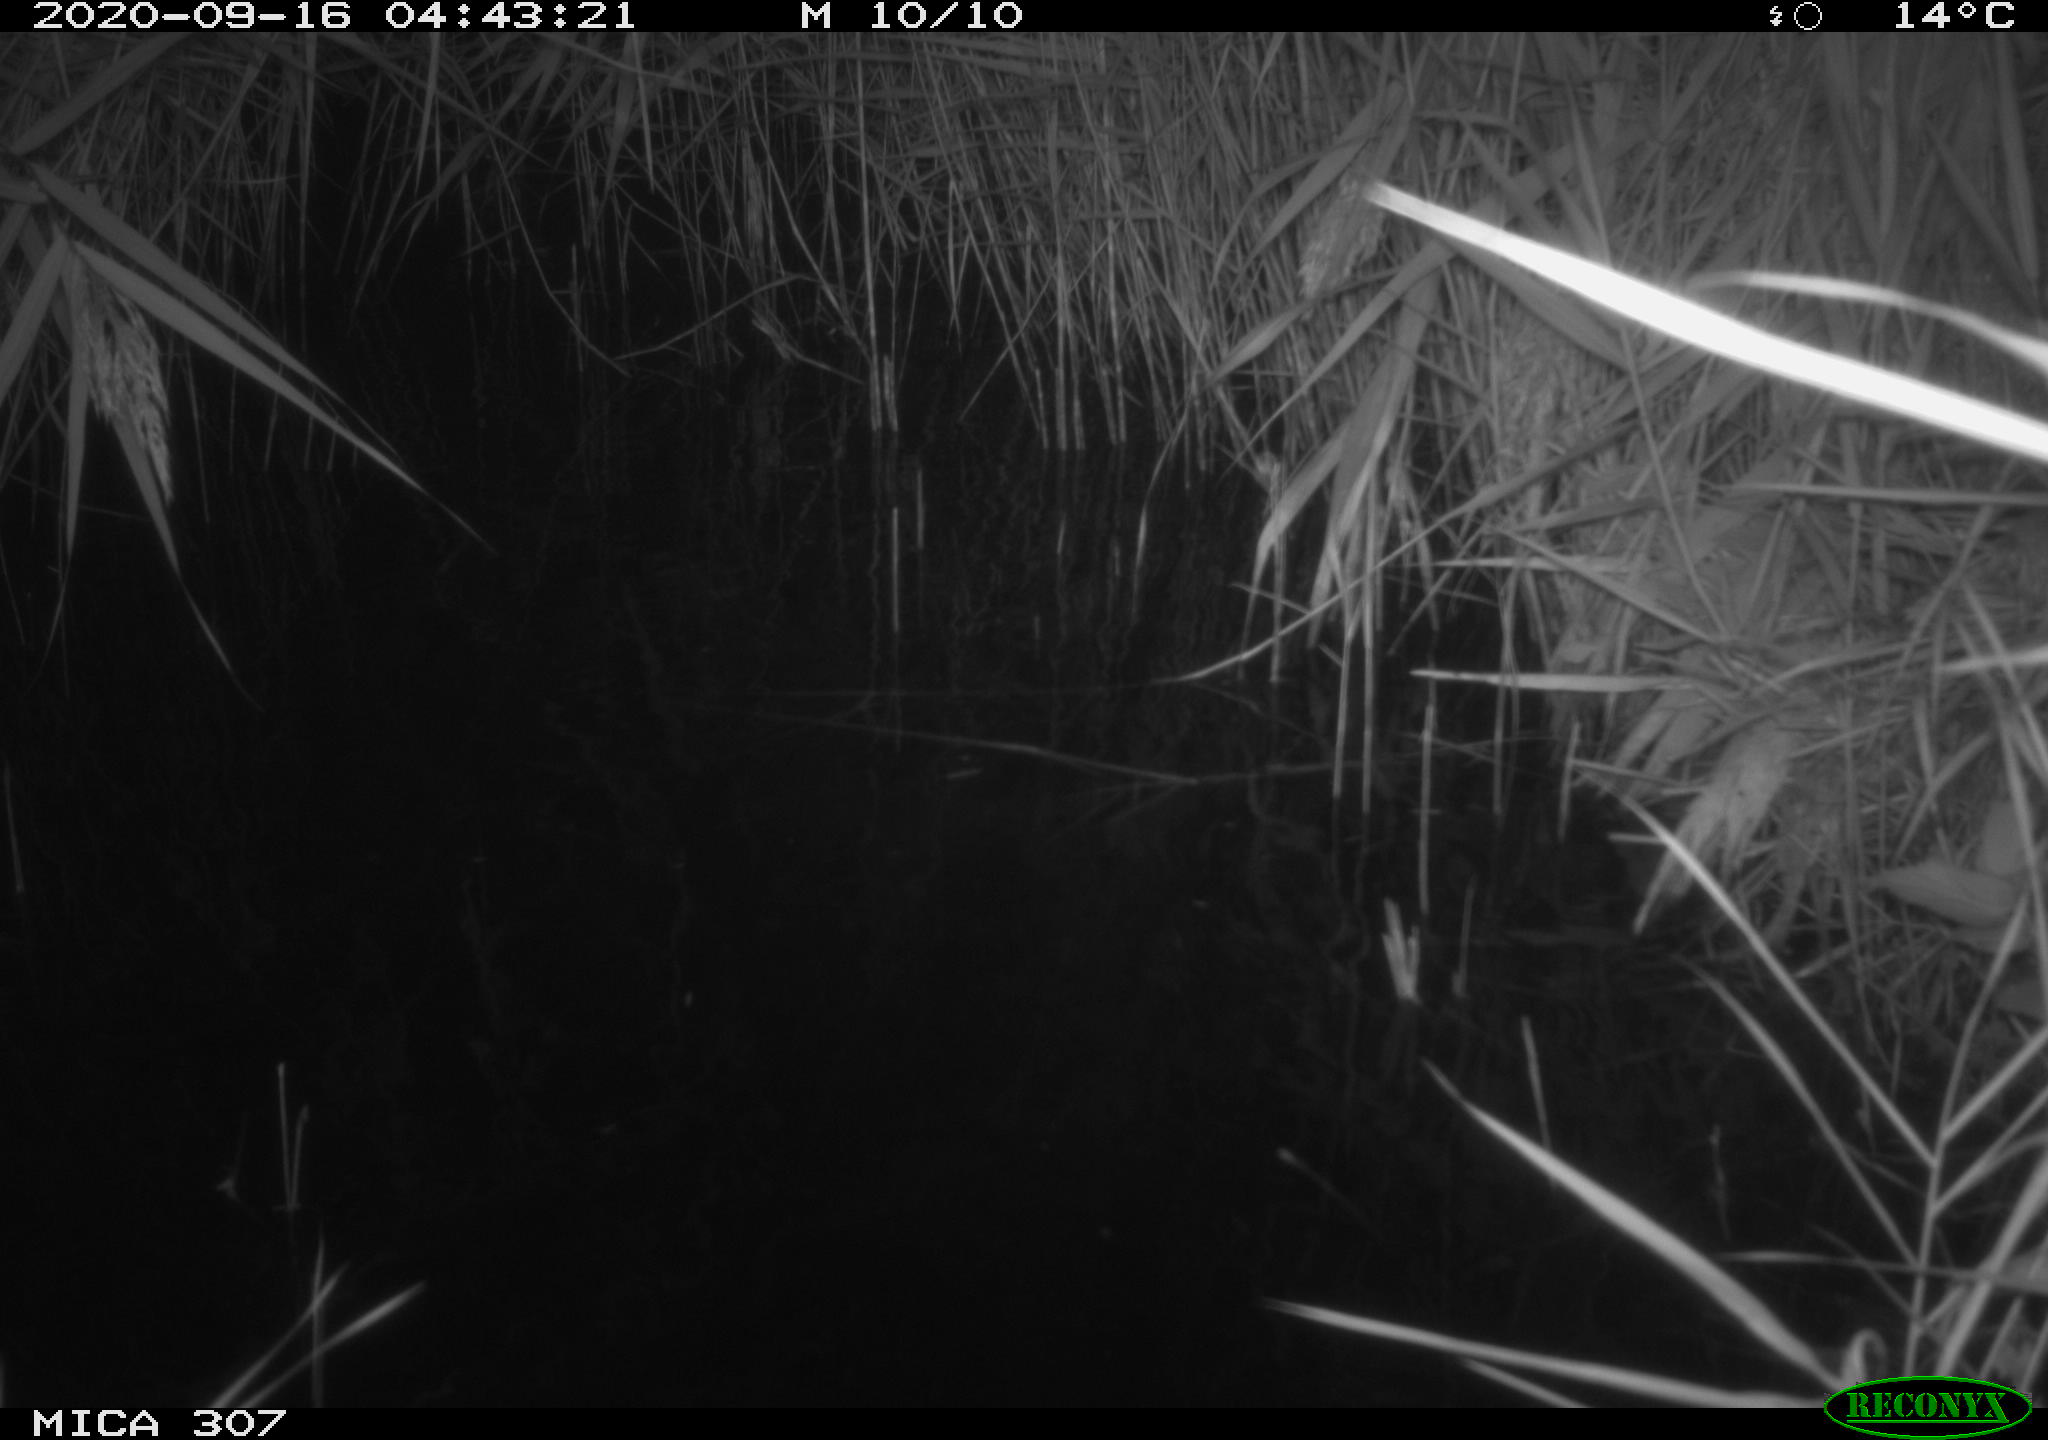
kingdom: Animalia
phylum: Chordata
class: Mammalia
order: Rodentia
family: Muridae
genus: Rattus
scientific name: Rattus norvegicus
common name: Brown rat
